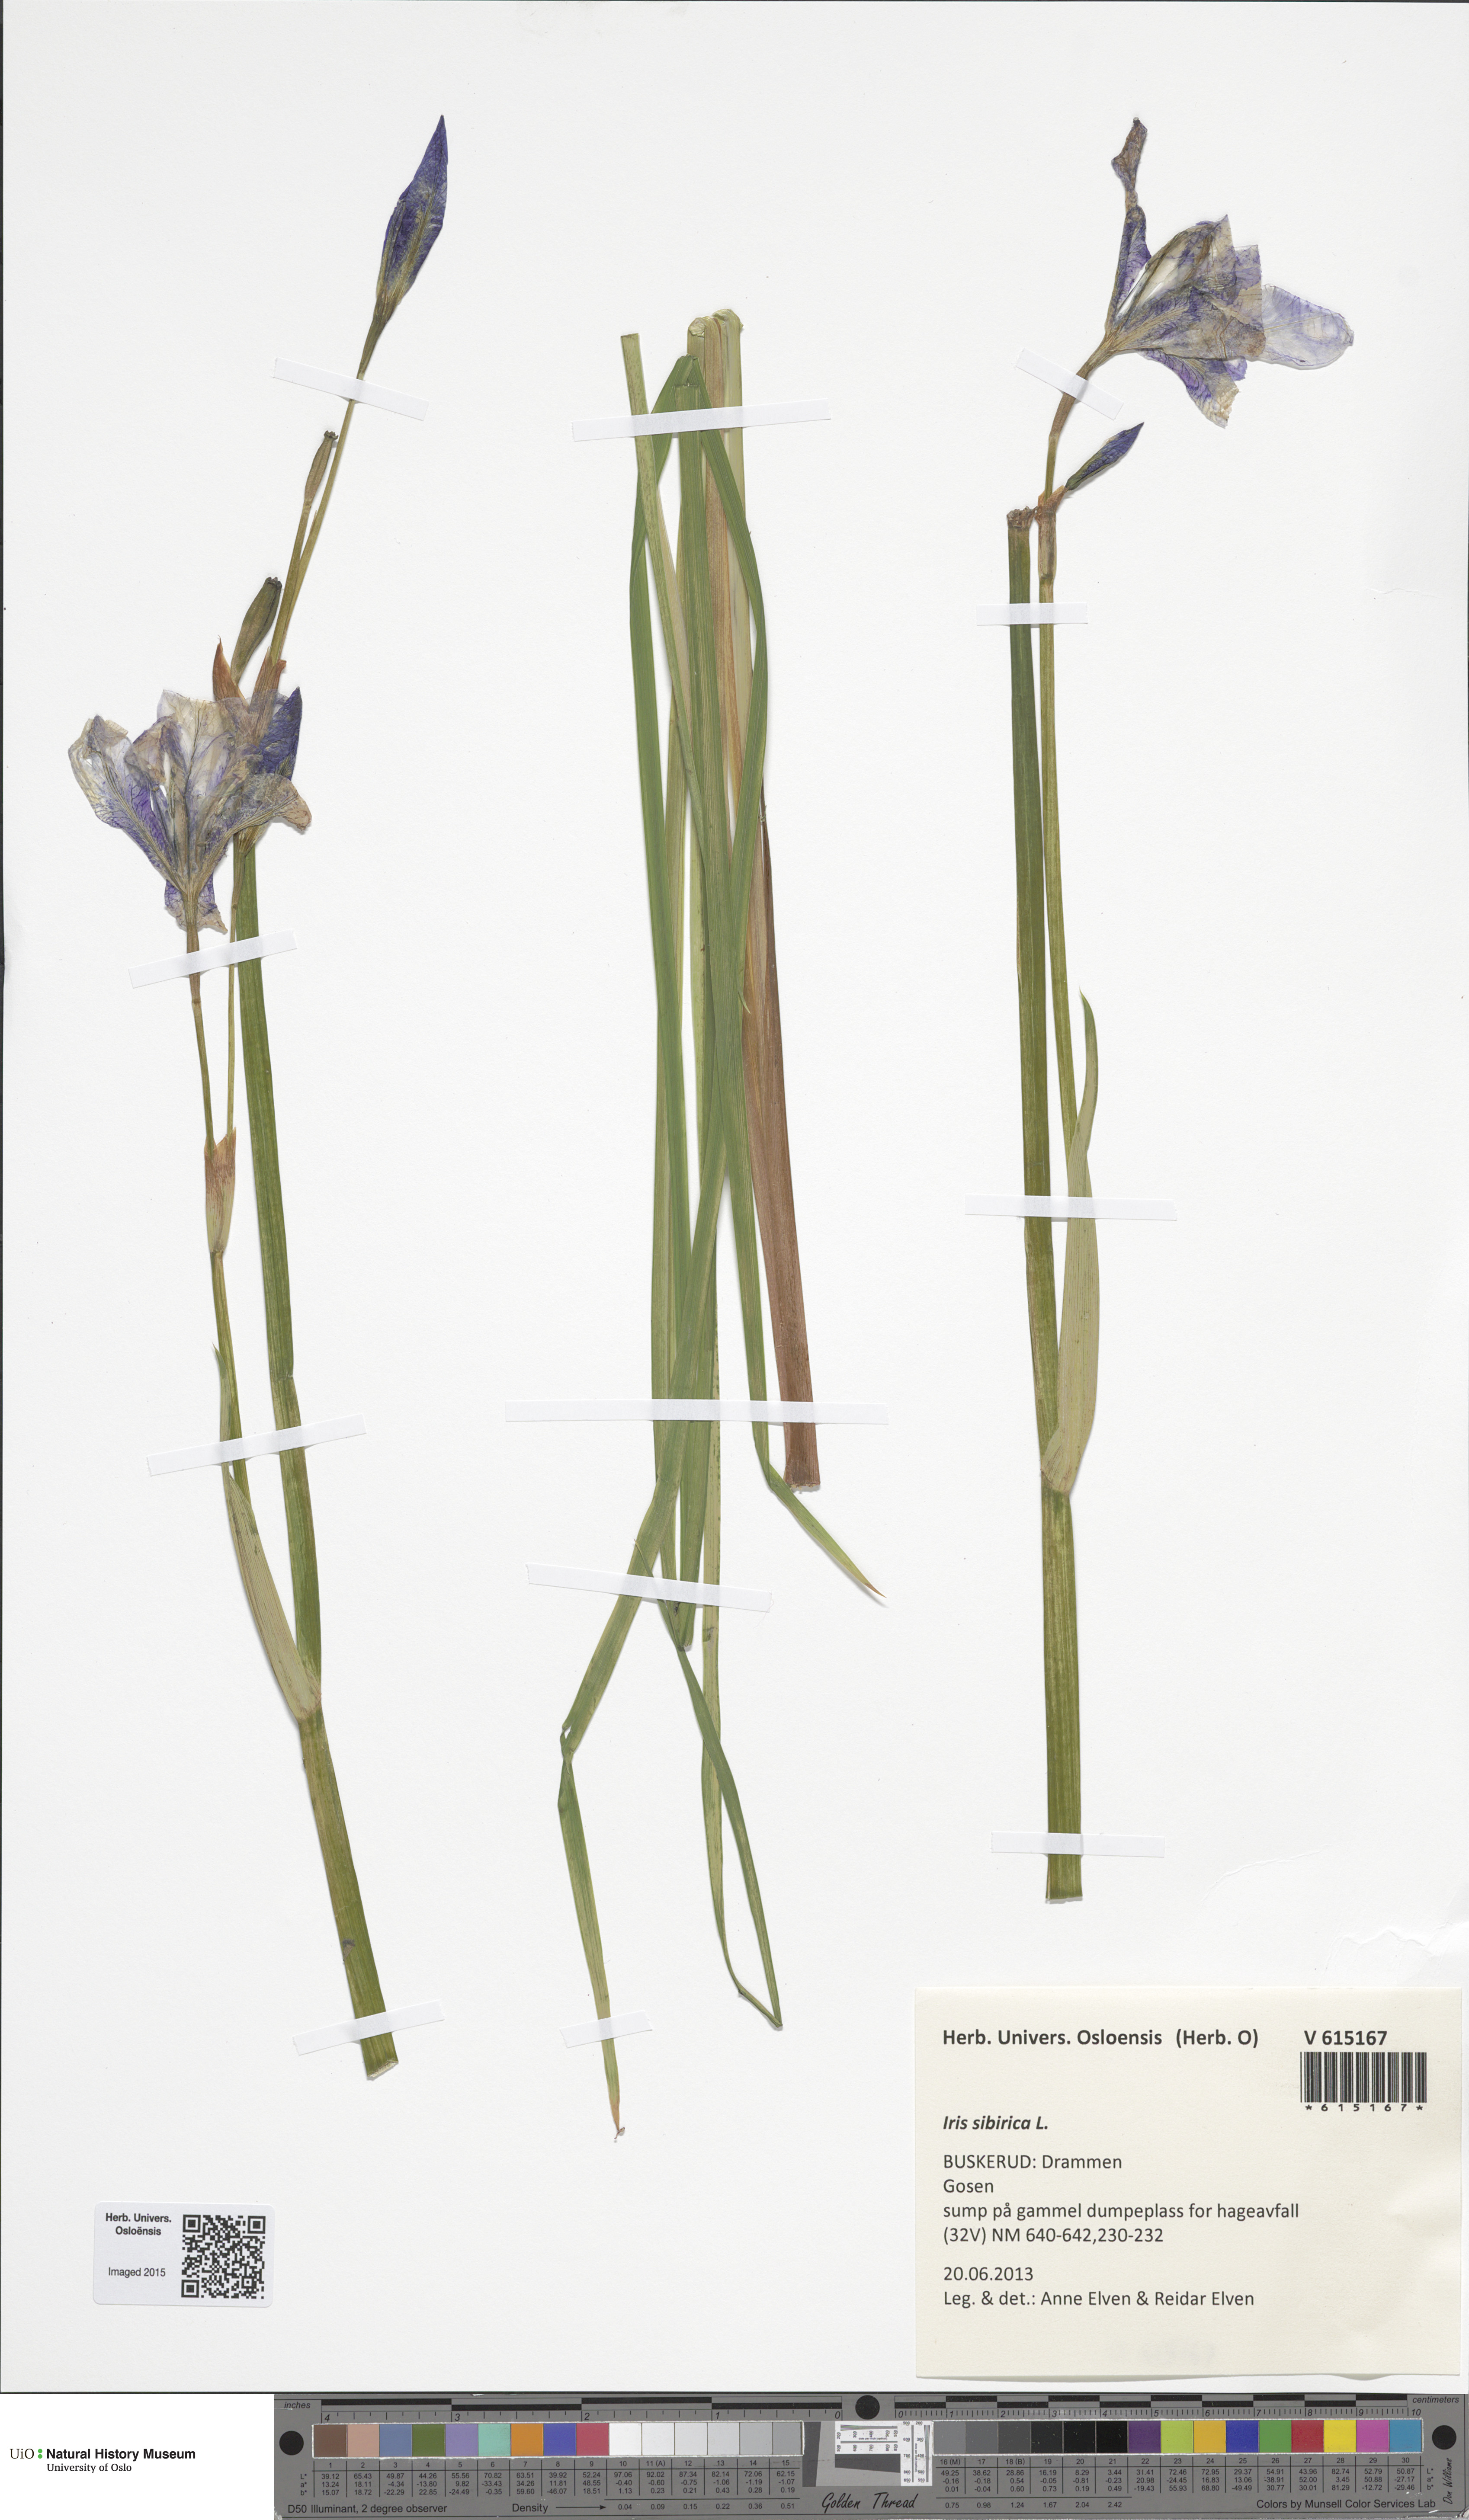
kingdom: Plantae
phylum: Tracheophyta
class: Liliopsida
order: Asparagales
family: Iridaceae
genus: Iris
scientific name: Iris sibirica
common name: Siberian iris
